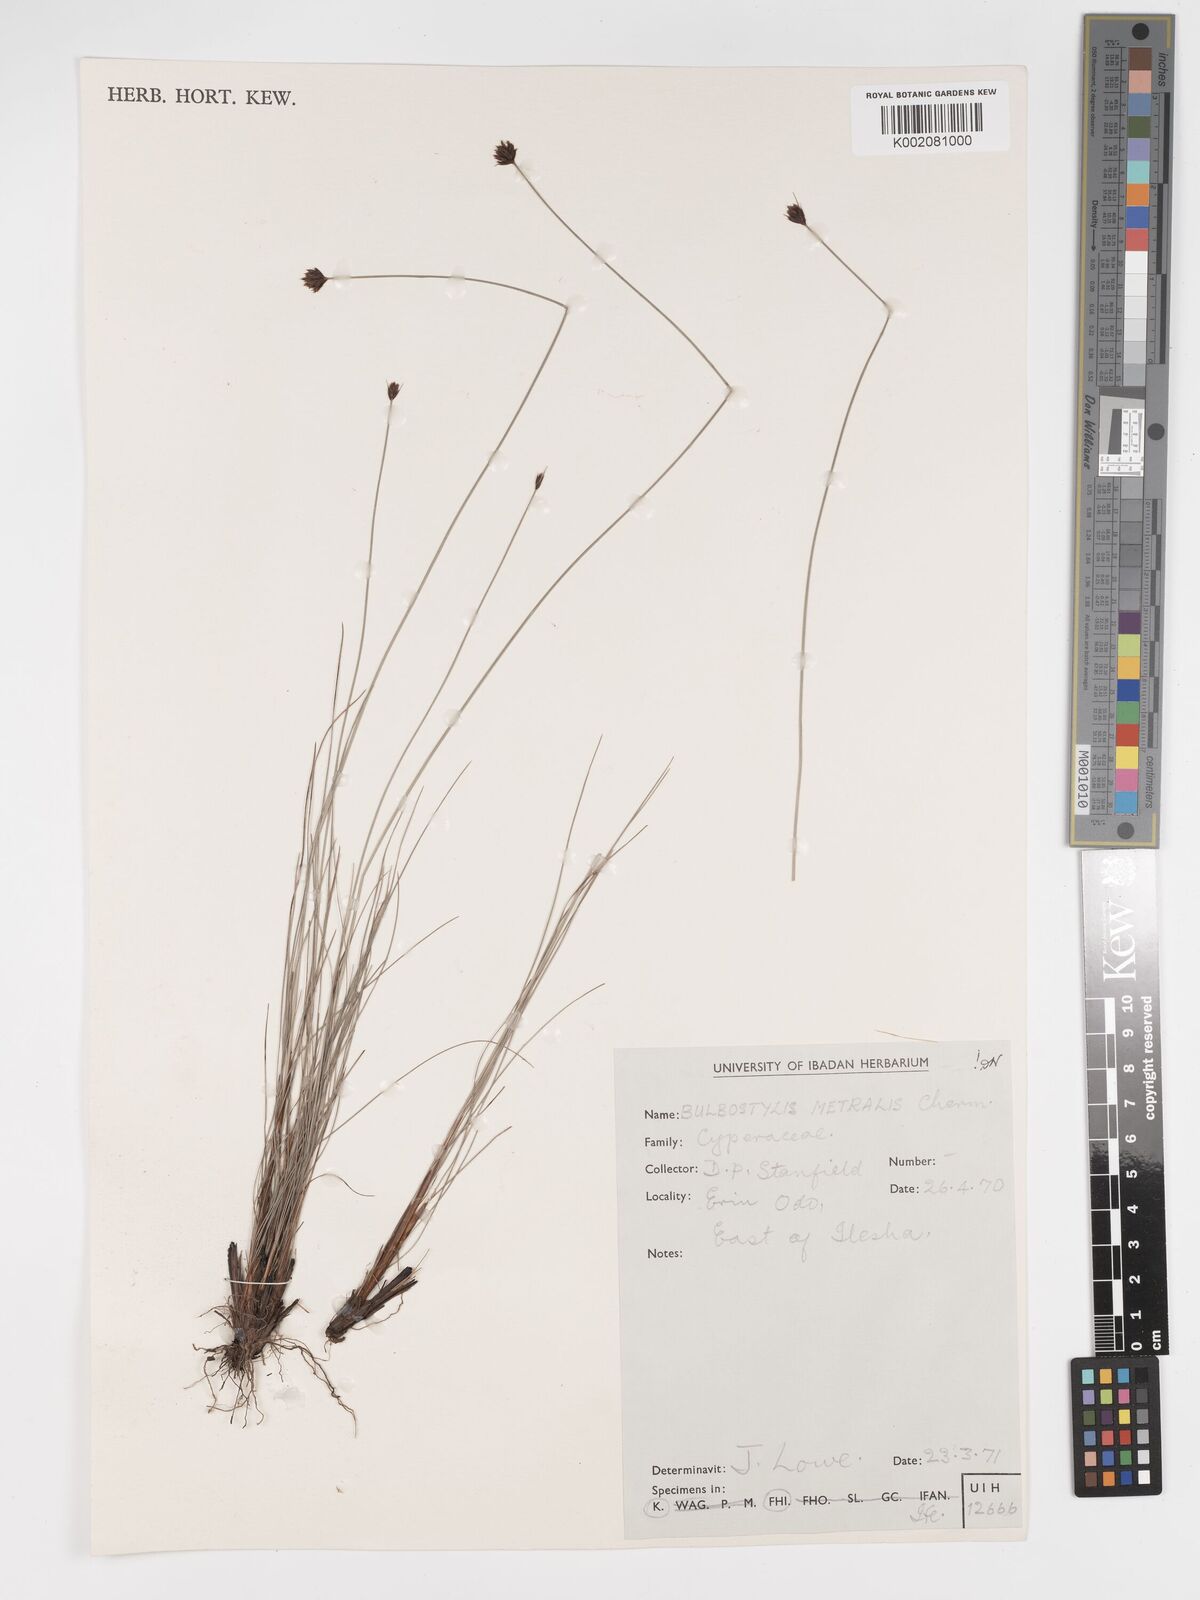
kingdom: Plantae
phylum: Tracheophyta
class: Liliopsida
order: Poales
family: Cyperaceae
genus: Bulbostylis
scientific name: Bulbostylis filamentosa
